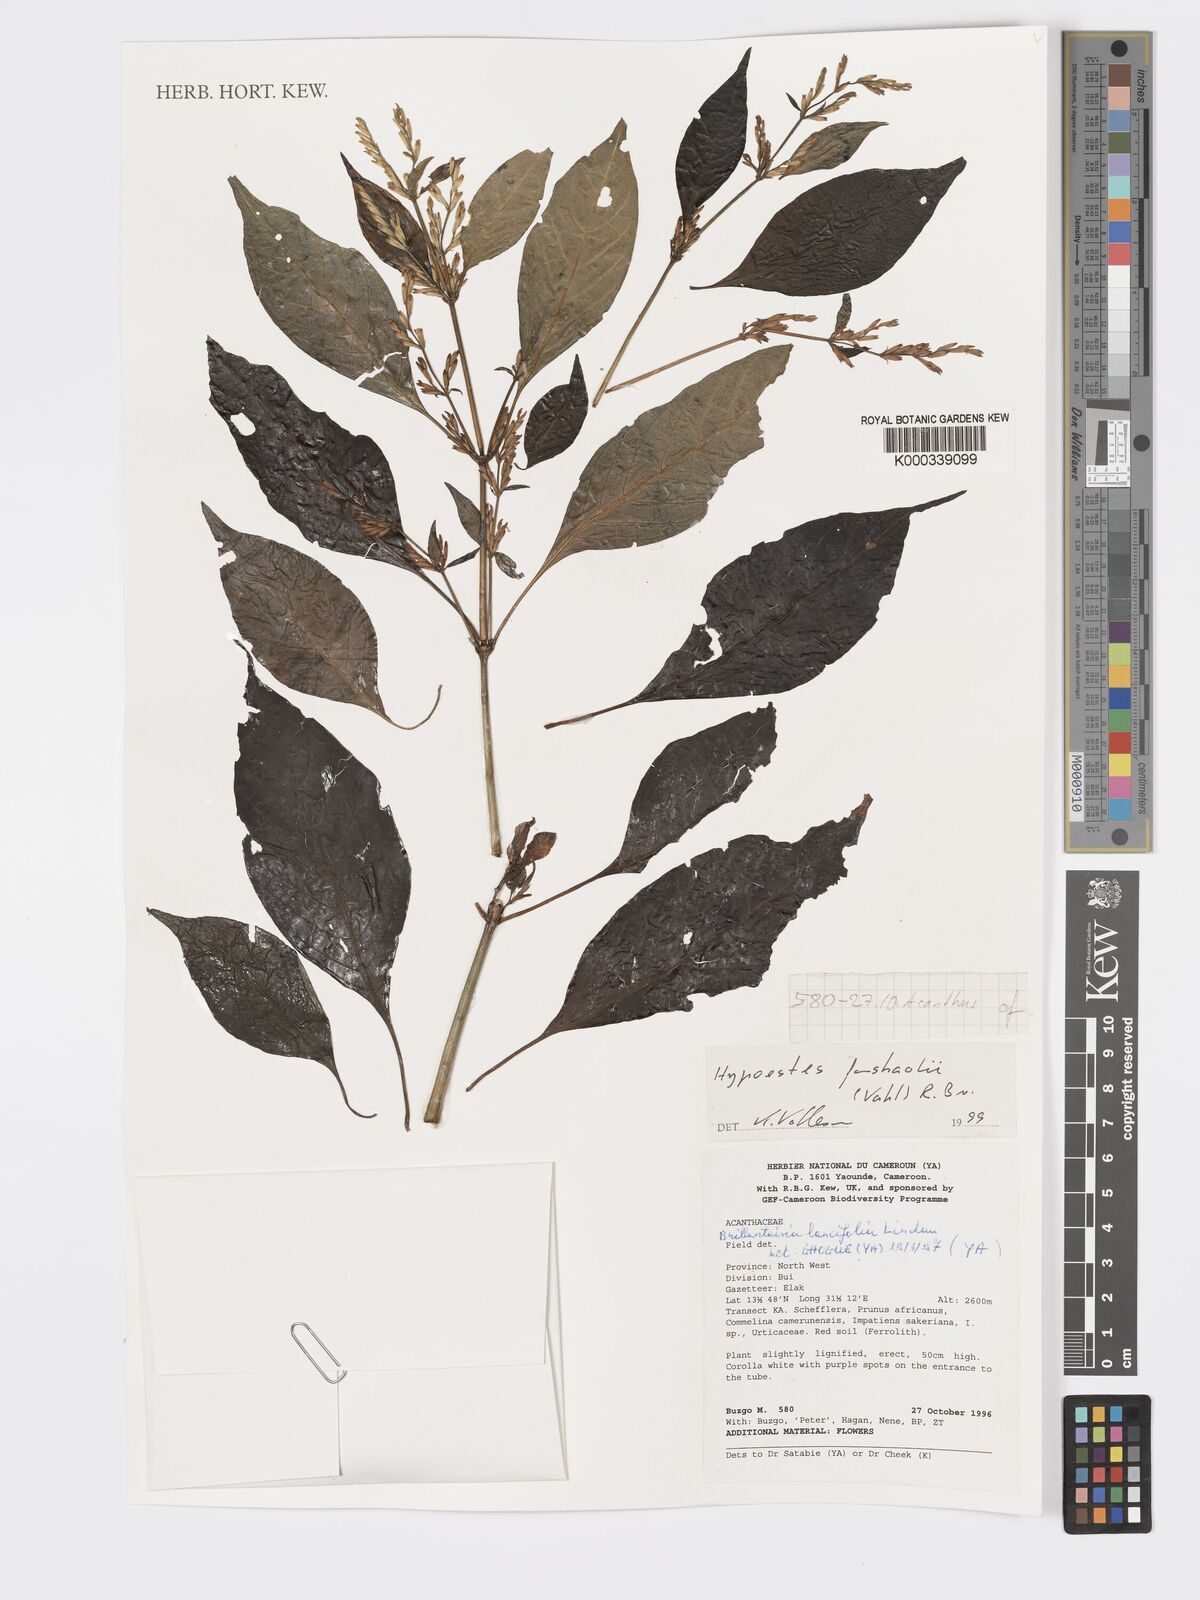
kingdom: Plantae
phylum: Tracheophyta
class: Magnoliopsida
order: Lamiales
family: Acanthaceae
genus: Hypoestes
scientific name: Hypoestes forskaolii
